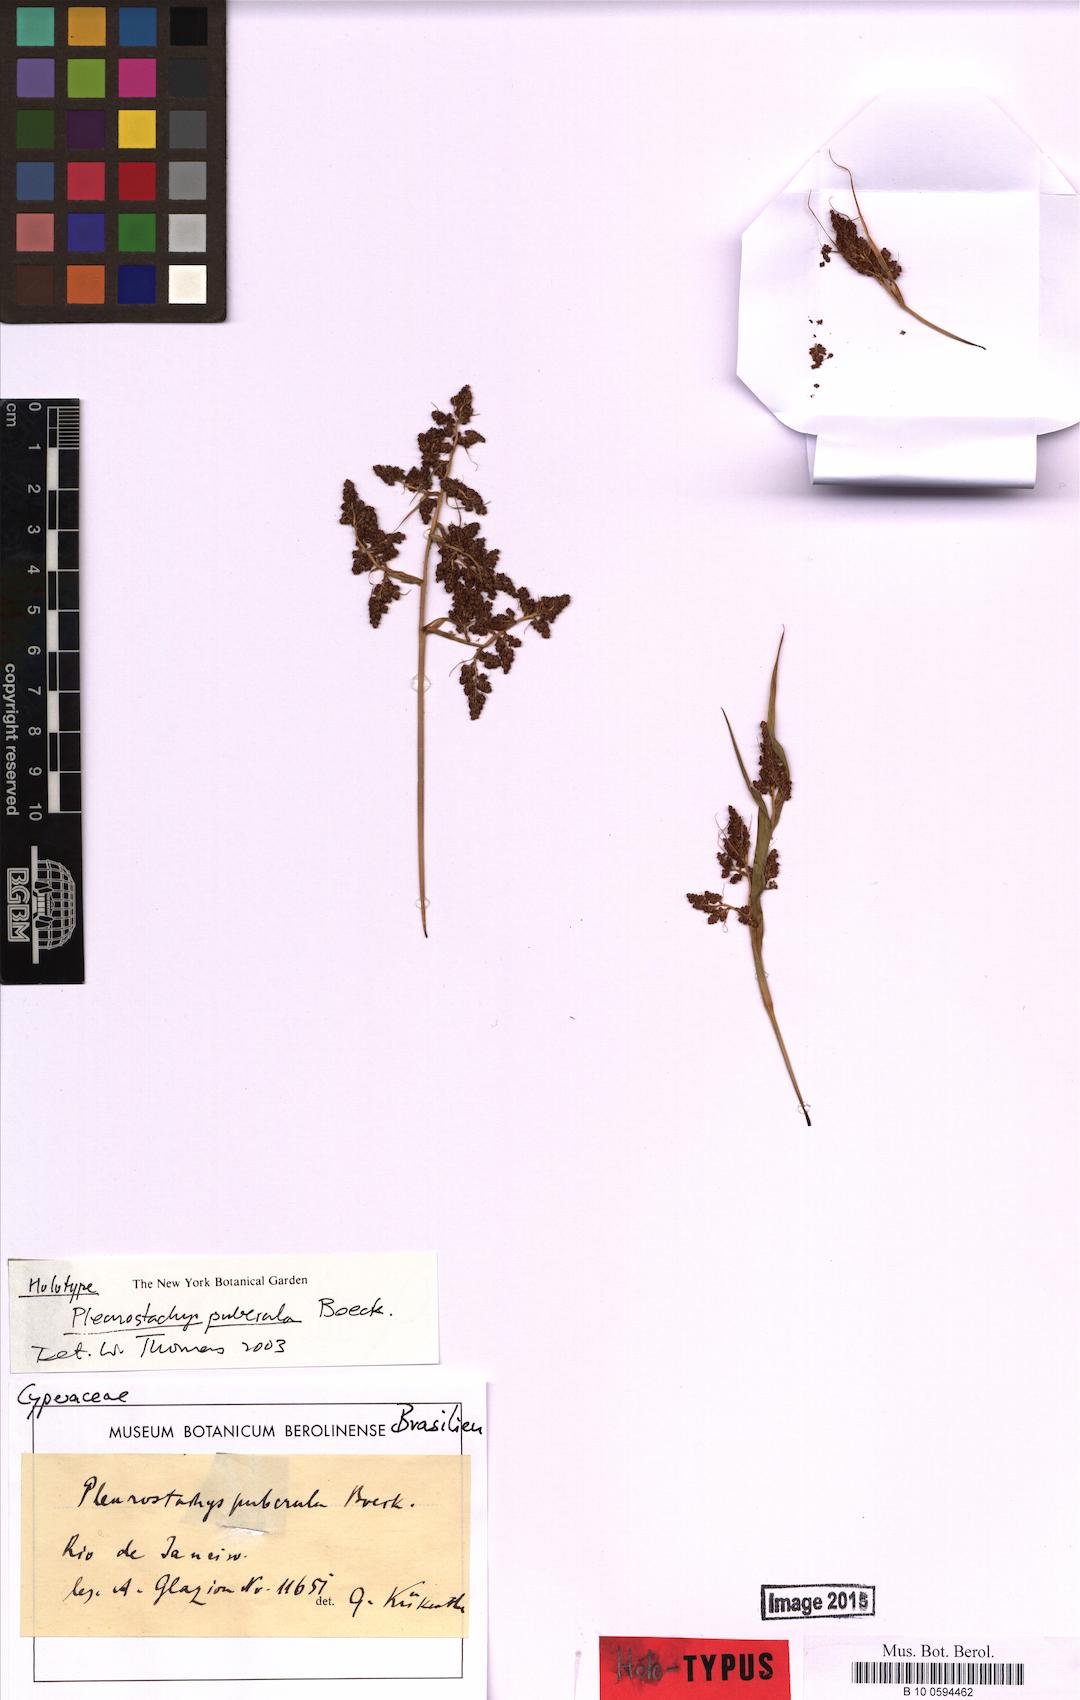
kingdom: Plantae
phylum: Tracheophyta
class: Liliopsida
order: Poales
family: Cyperaceae
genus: Rhynchospora
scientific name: Rhynchospora orbignyana
